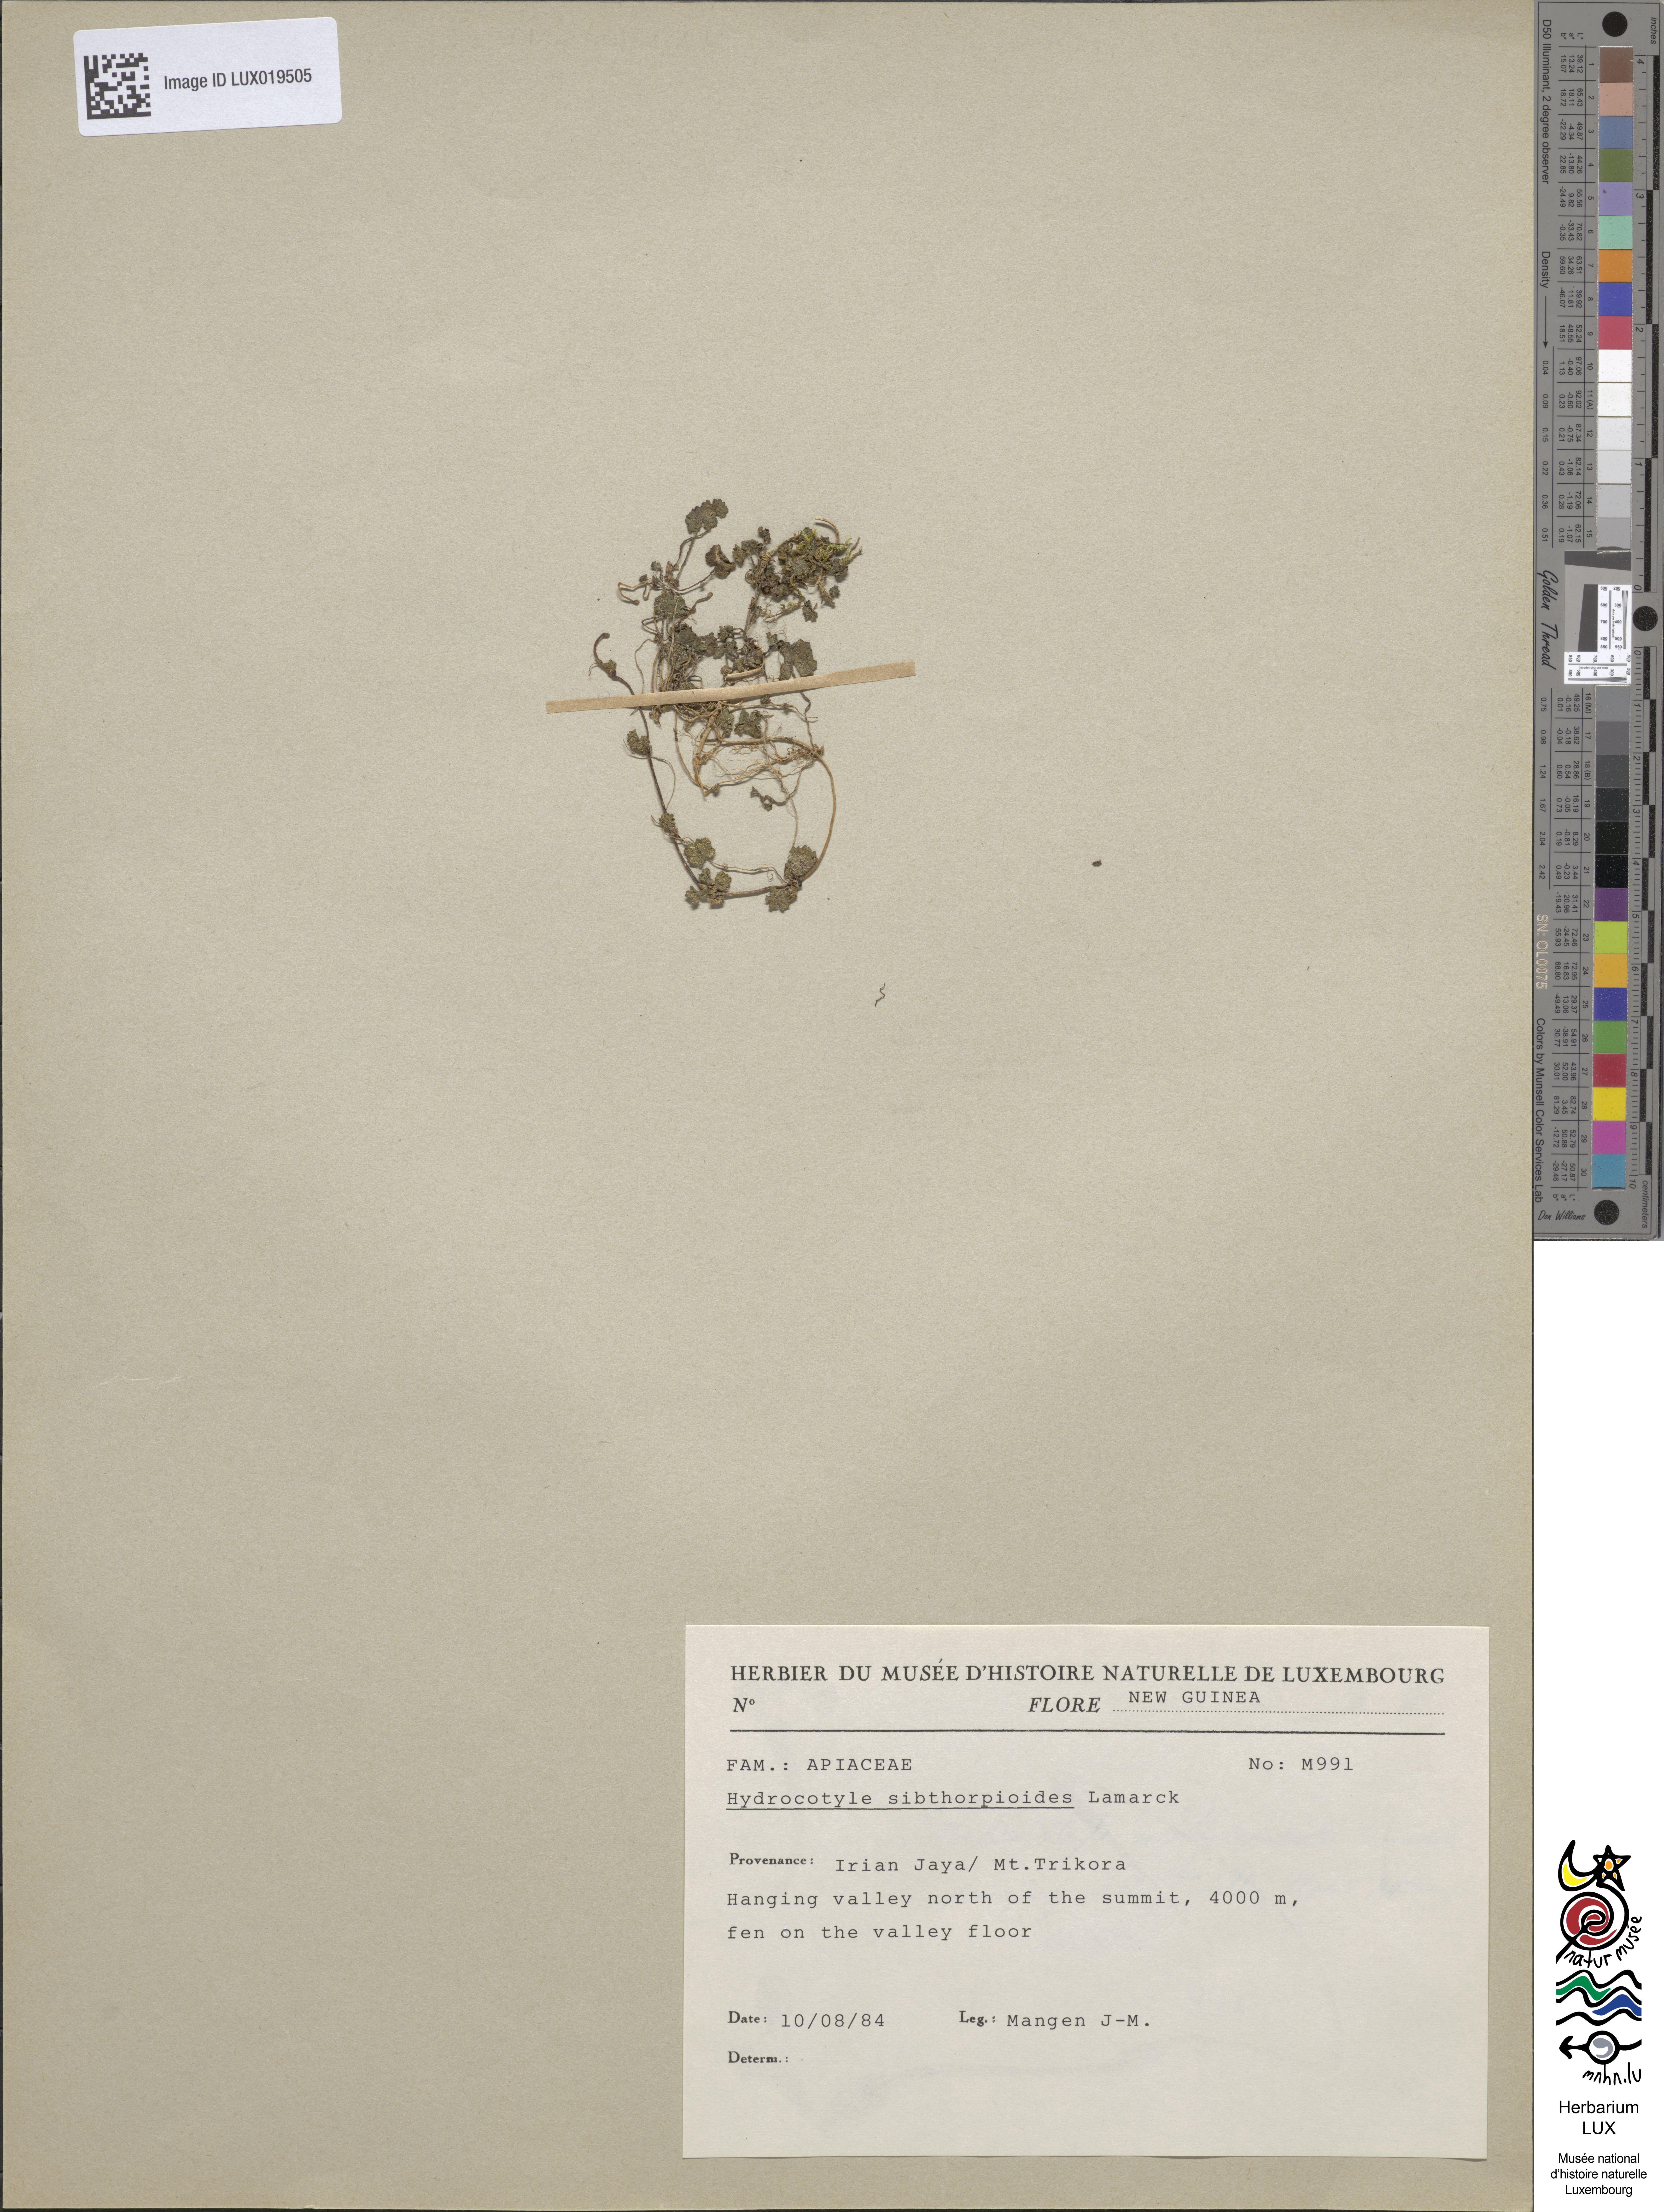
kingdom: Plantae
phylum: Tracheophyta
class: Magnoliopsida
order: Apiales
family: Araliaceae
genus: Hydrocotyle
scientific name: Hydrocotyle sibthorpioides
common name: Lawn marshpennywort
